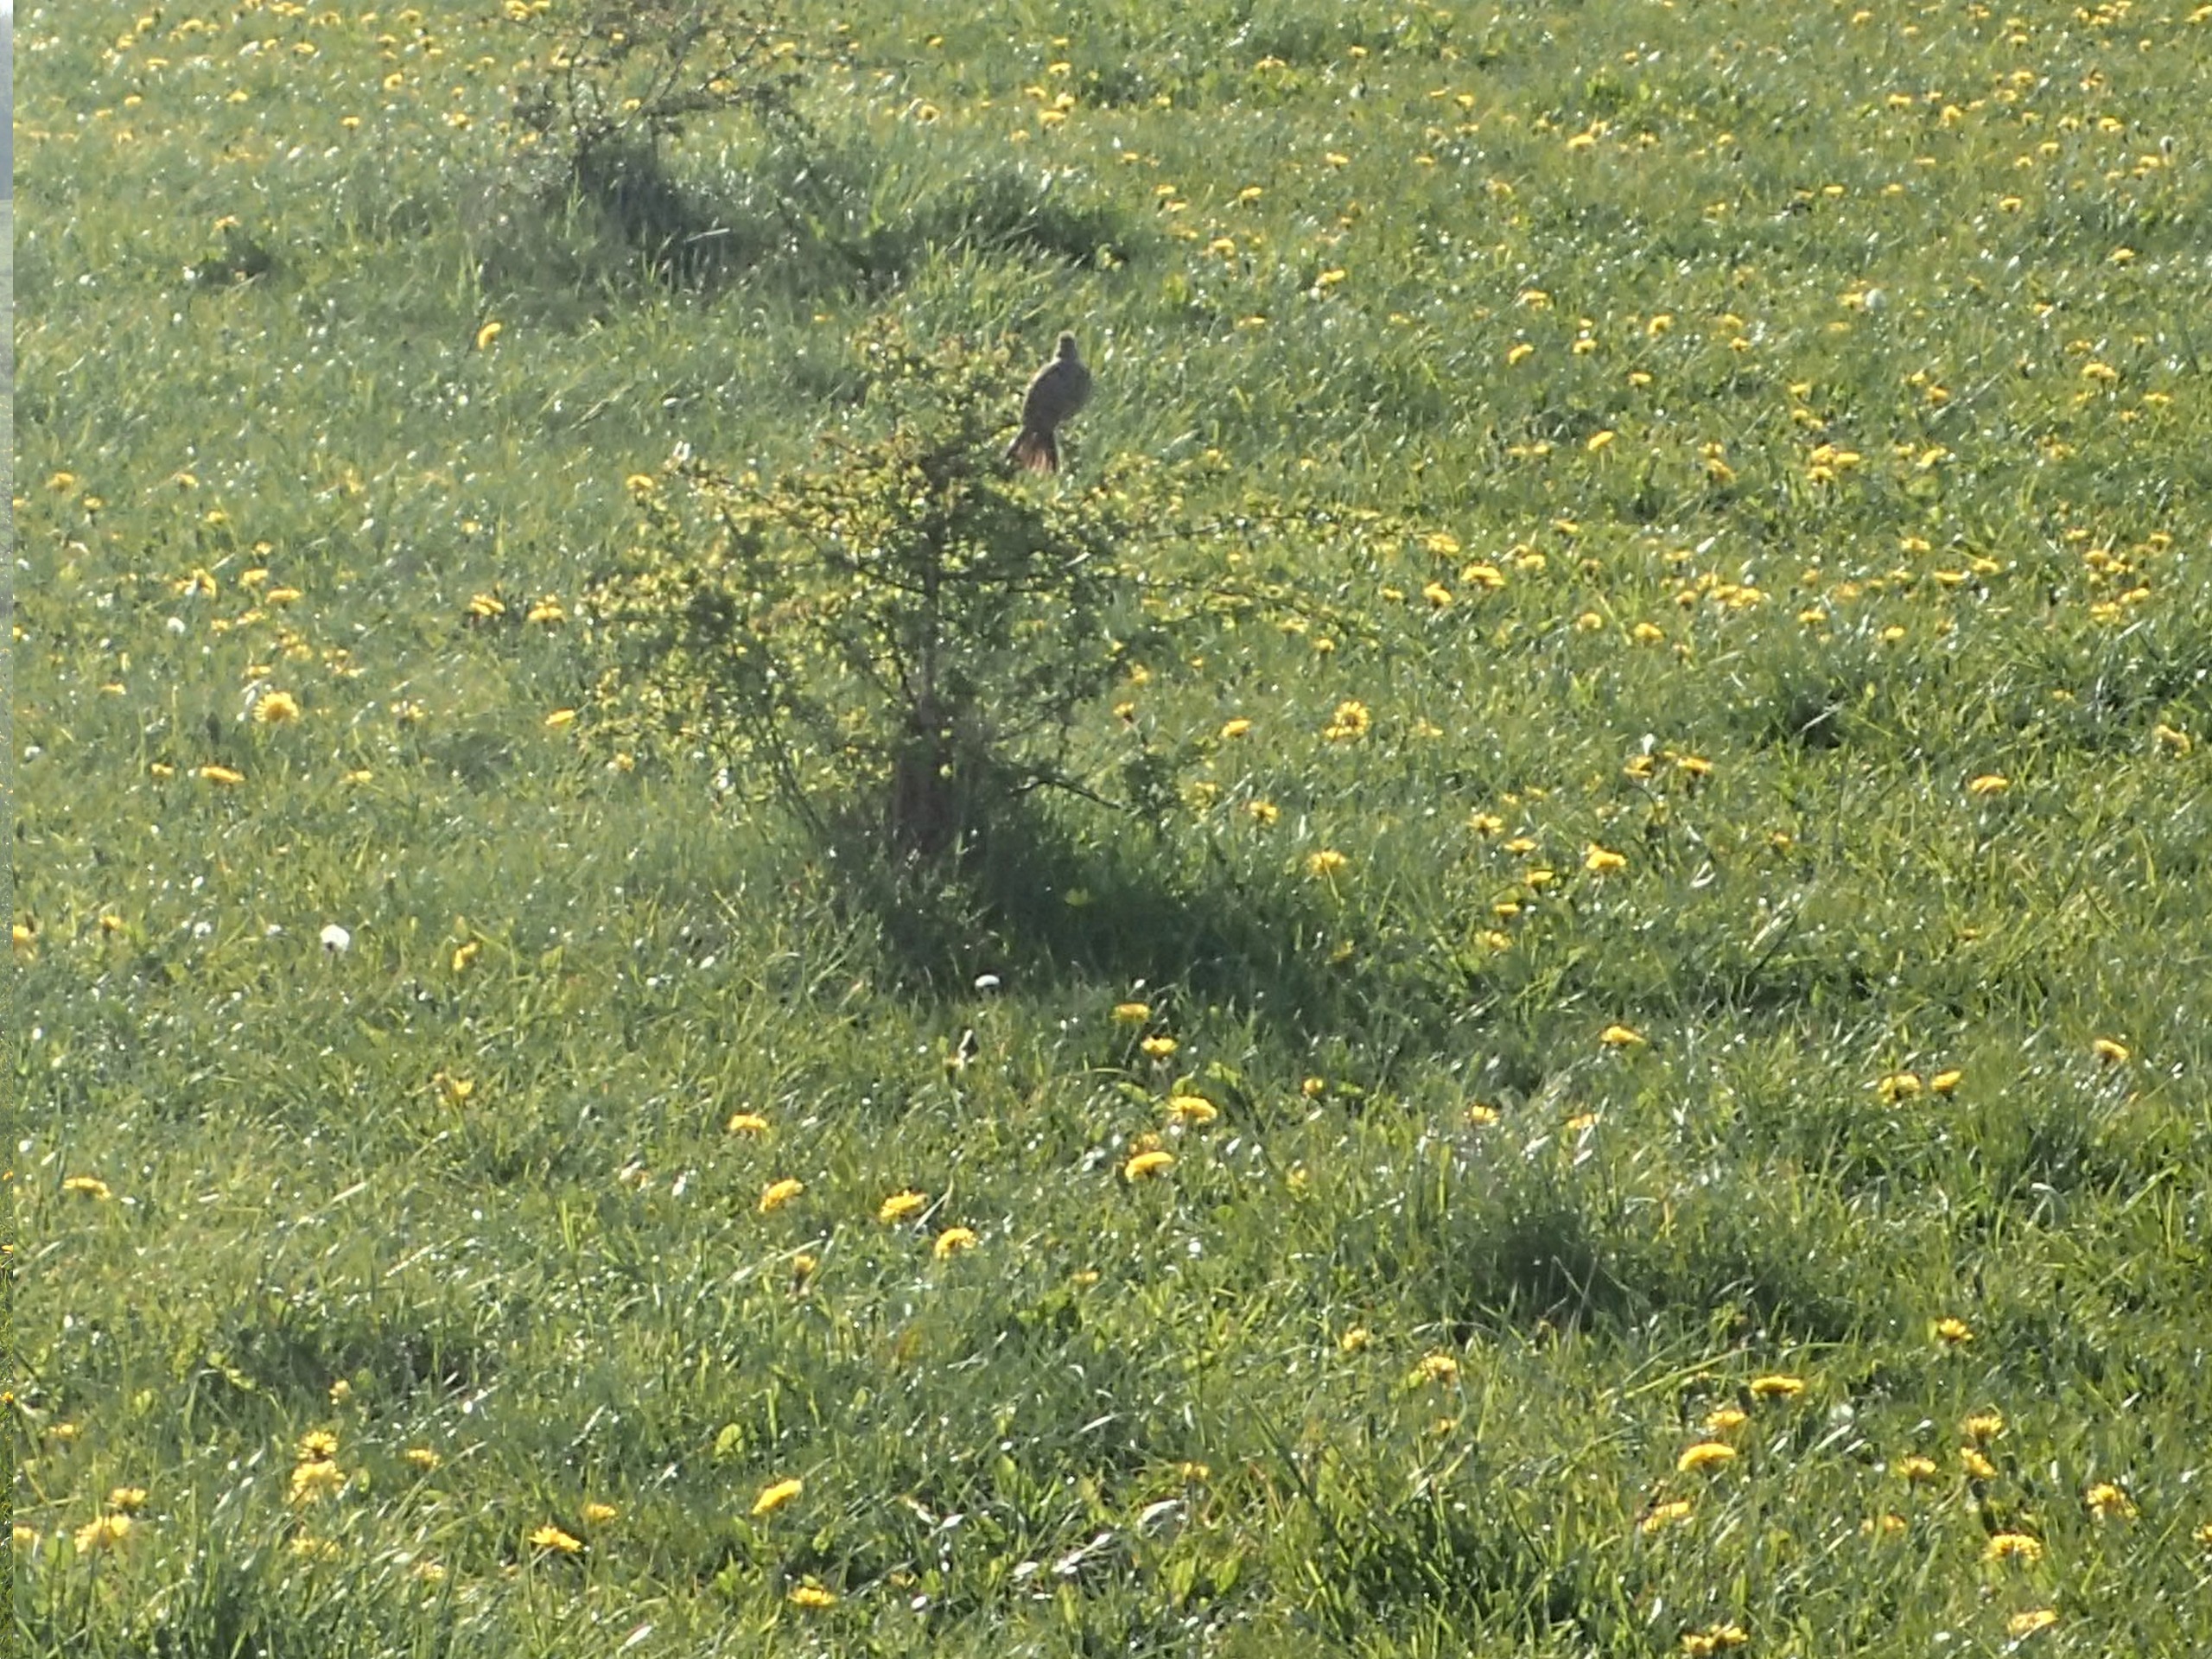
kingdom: Animalia
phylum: Chordata
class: Aves
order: Passeriformes
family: Alaudidae
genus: Alauda
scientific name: Alauda arvensis
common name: Sanglærke
